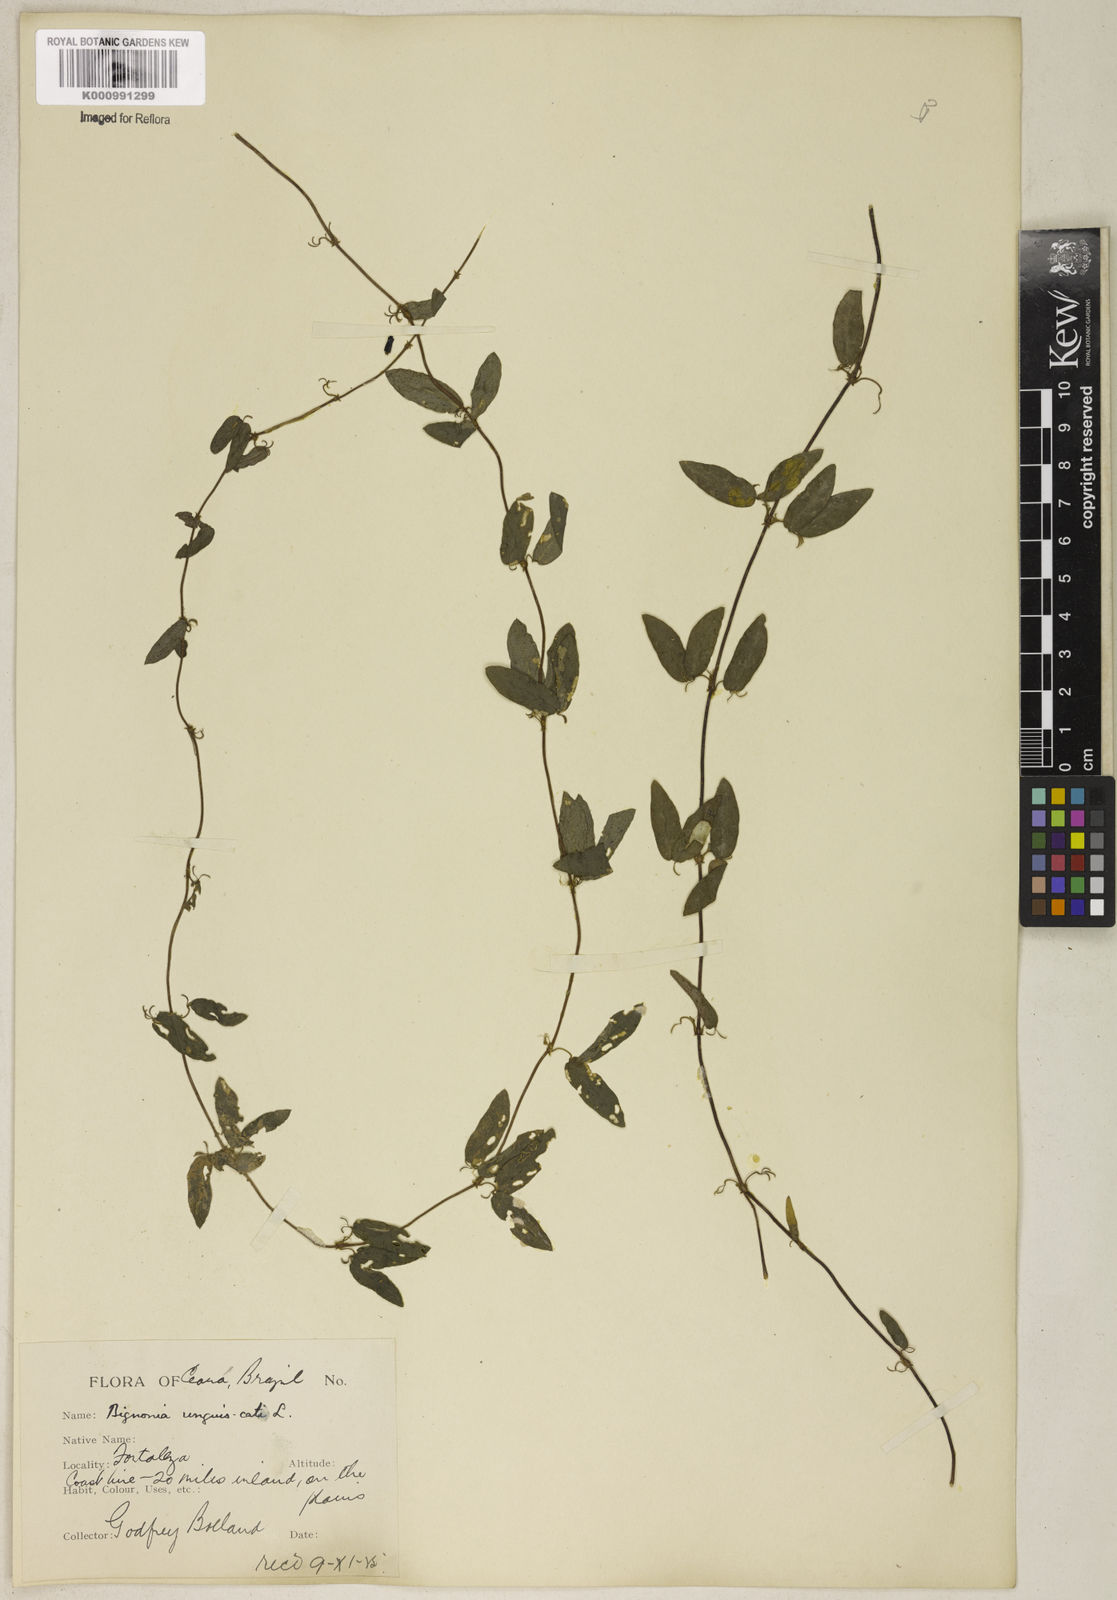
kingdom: Animalia
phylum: Chordata
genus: Macfadyena
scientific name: Macfadyena
